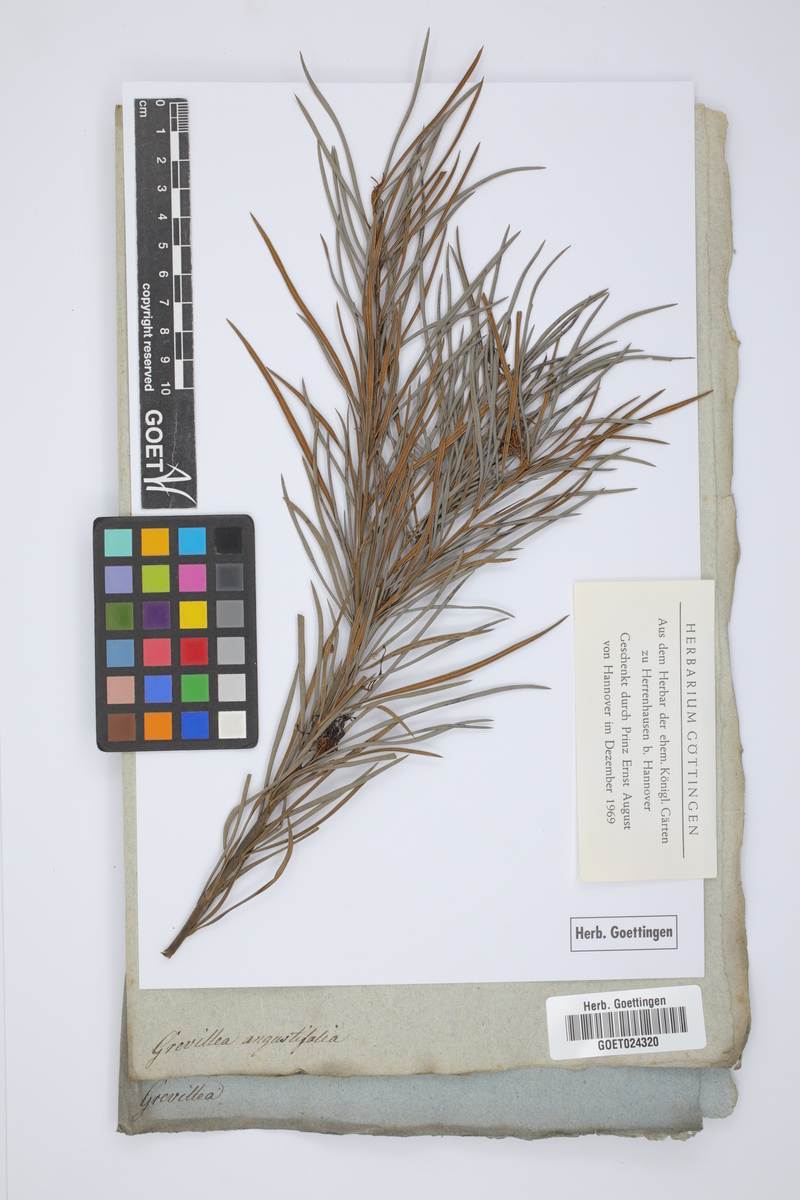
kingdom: Plantae
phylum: Tracheophyta
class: Magnoliopsida
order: Proteales
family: Proteaceae
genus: Grevillea
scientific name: Grevillea
